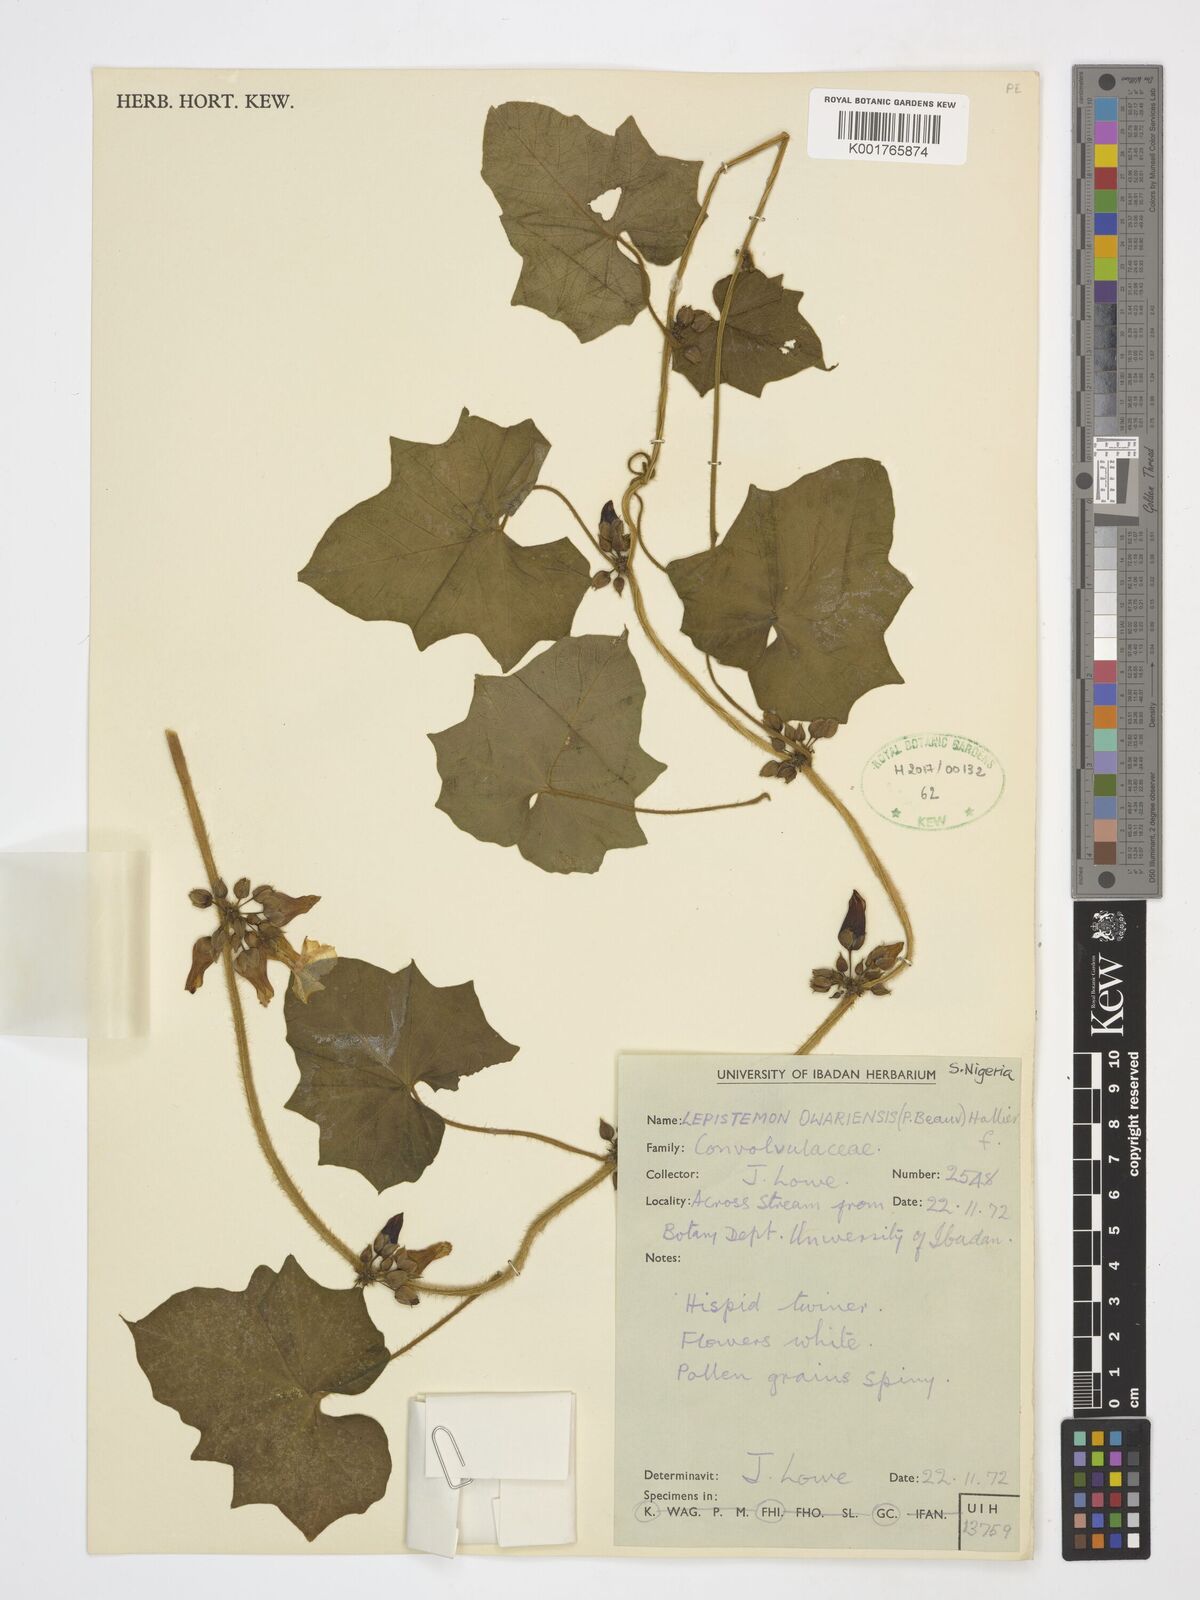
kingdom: Plantae
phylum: Tracheophyta
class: Magnoliopsida
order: Solanales
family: Convolvulaceae
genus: Lepistemon
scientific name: Lepistemon
